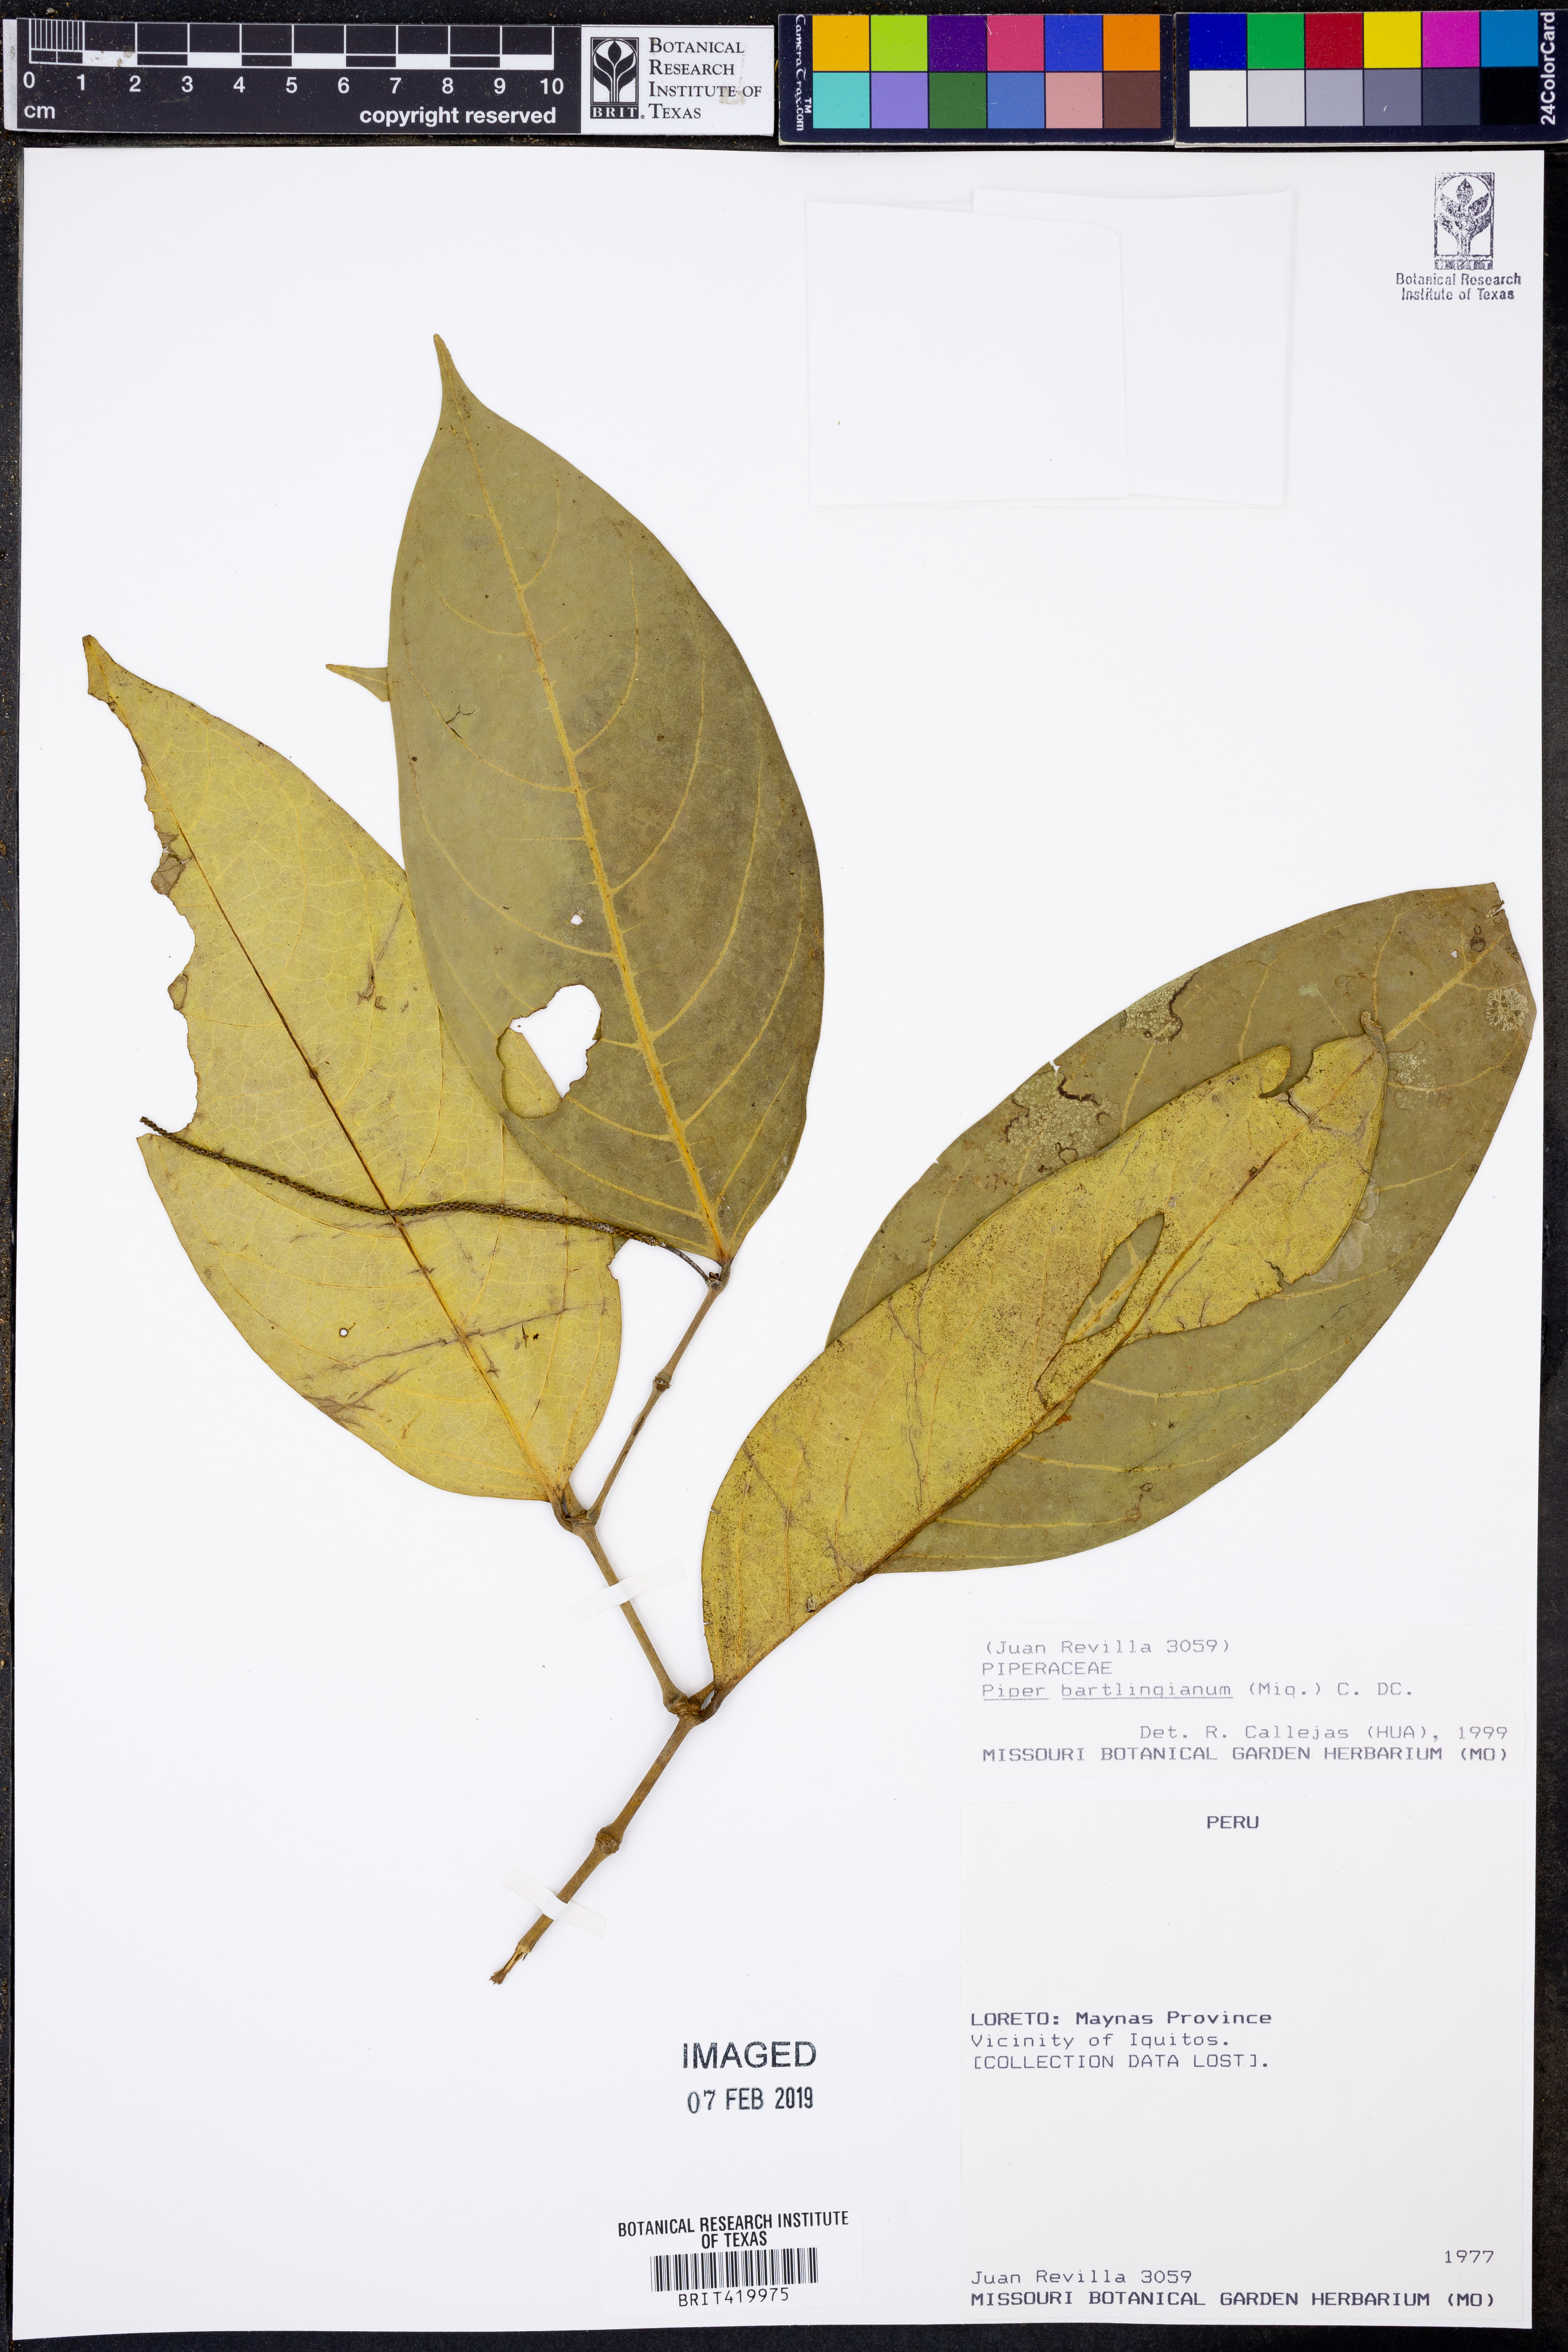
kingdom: Plantae
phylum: Tracheophyta
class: Magnoliopsida
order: Piperales
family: Piperaceae
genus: Piper
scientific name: Piper bartlingianum
